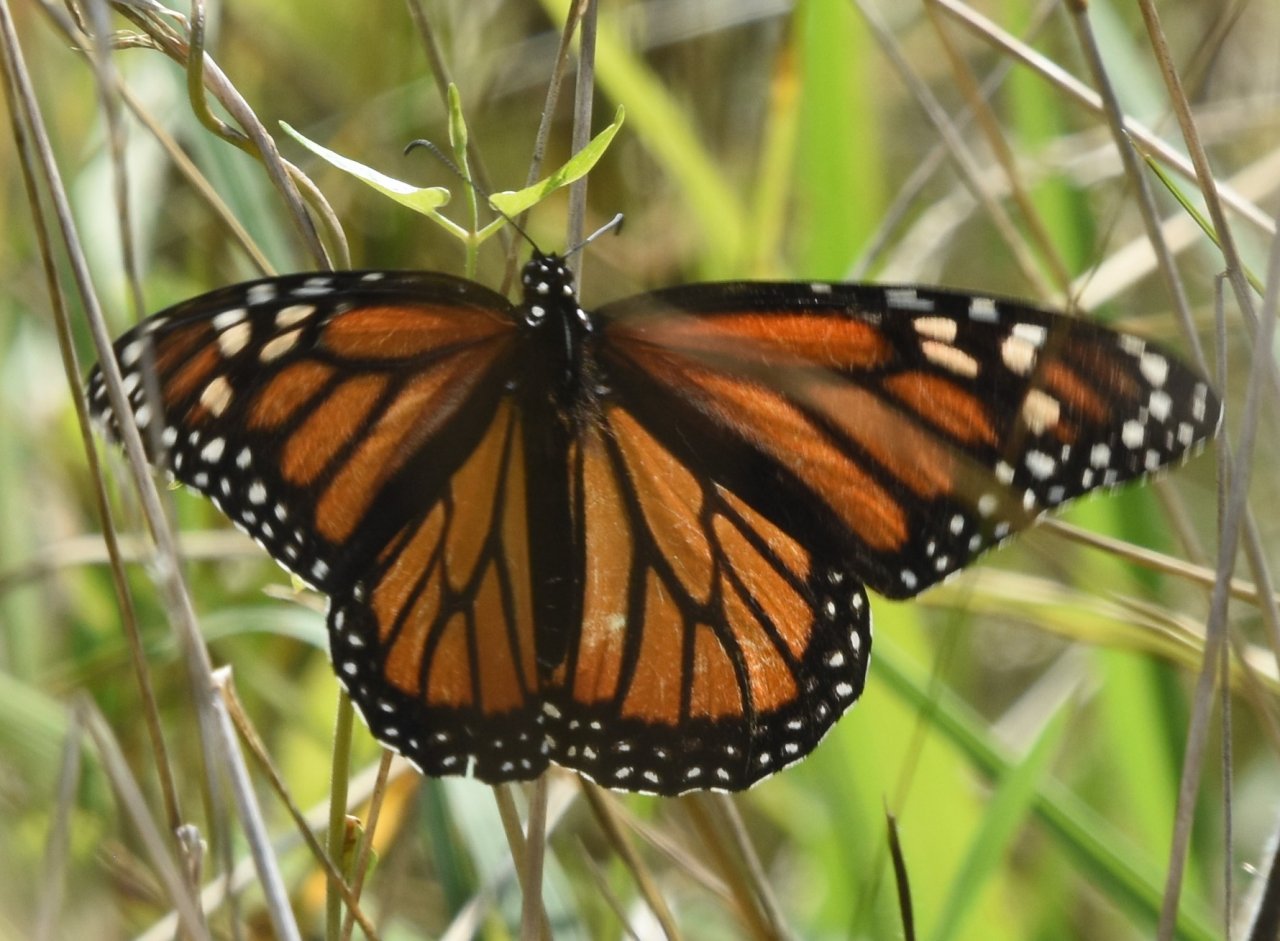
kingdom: Animalia
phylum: Arthropoda
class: Insecta
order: Lepidoptera
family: Nymphalidae
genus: Danaus
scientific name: Danaus plexippus
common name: Monarch
